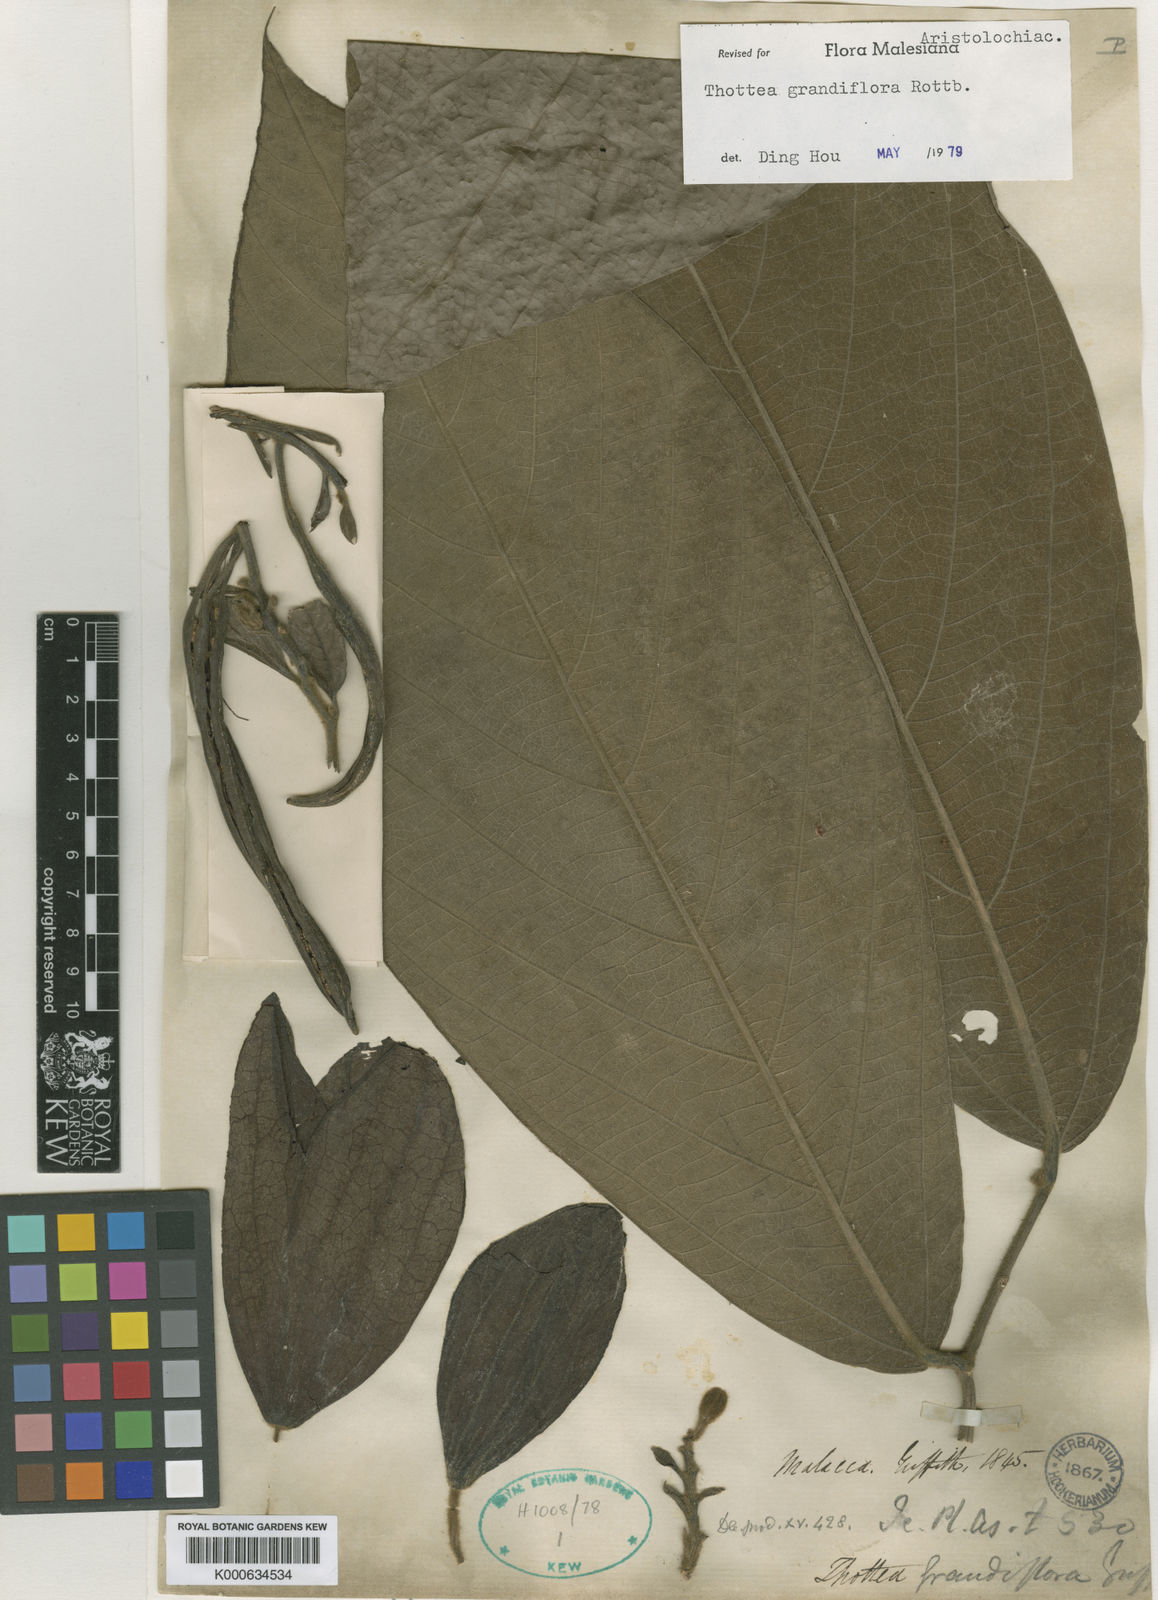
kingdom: Plantae
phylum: Tracheophyta
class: Magnoliopsida
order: Piperales
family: Aristolochiaceae
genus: Thottea
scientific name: Thottea grandiflora
